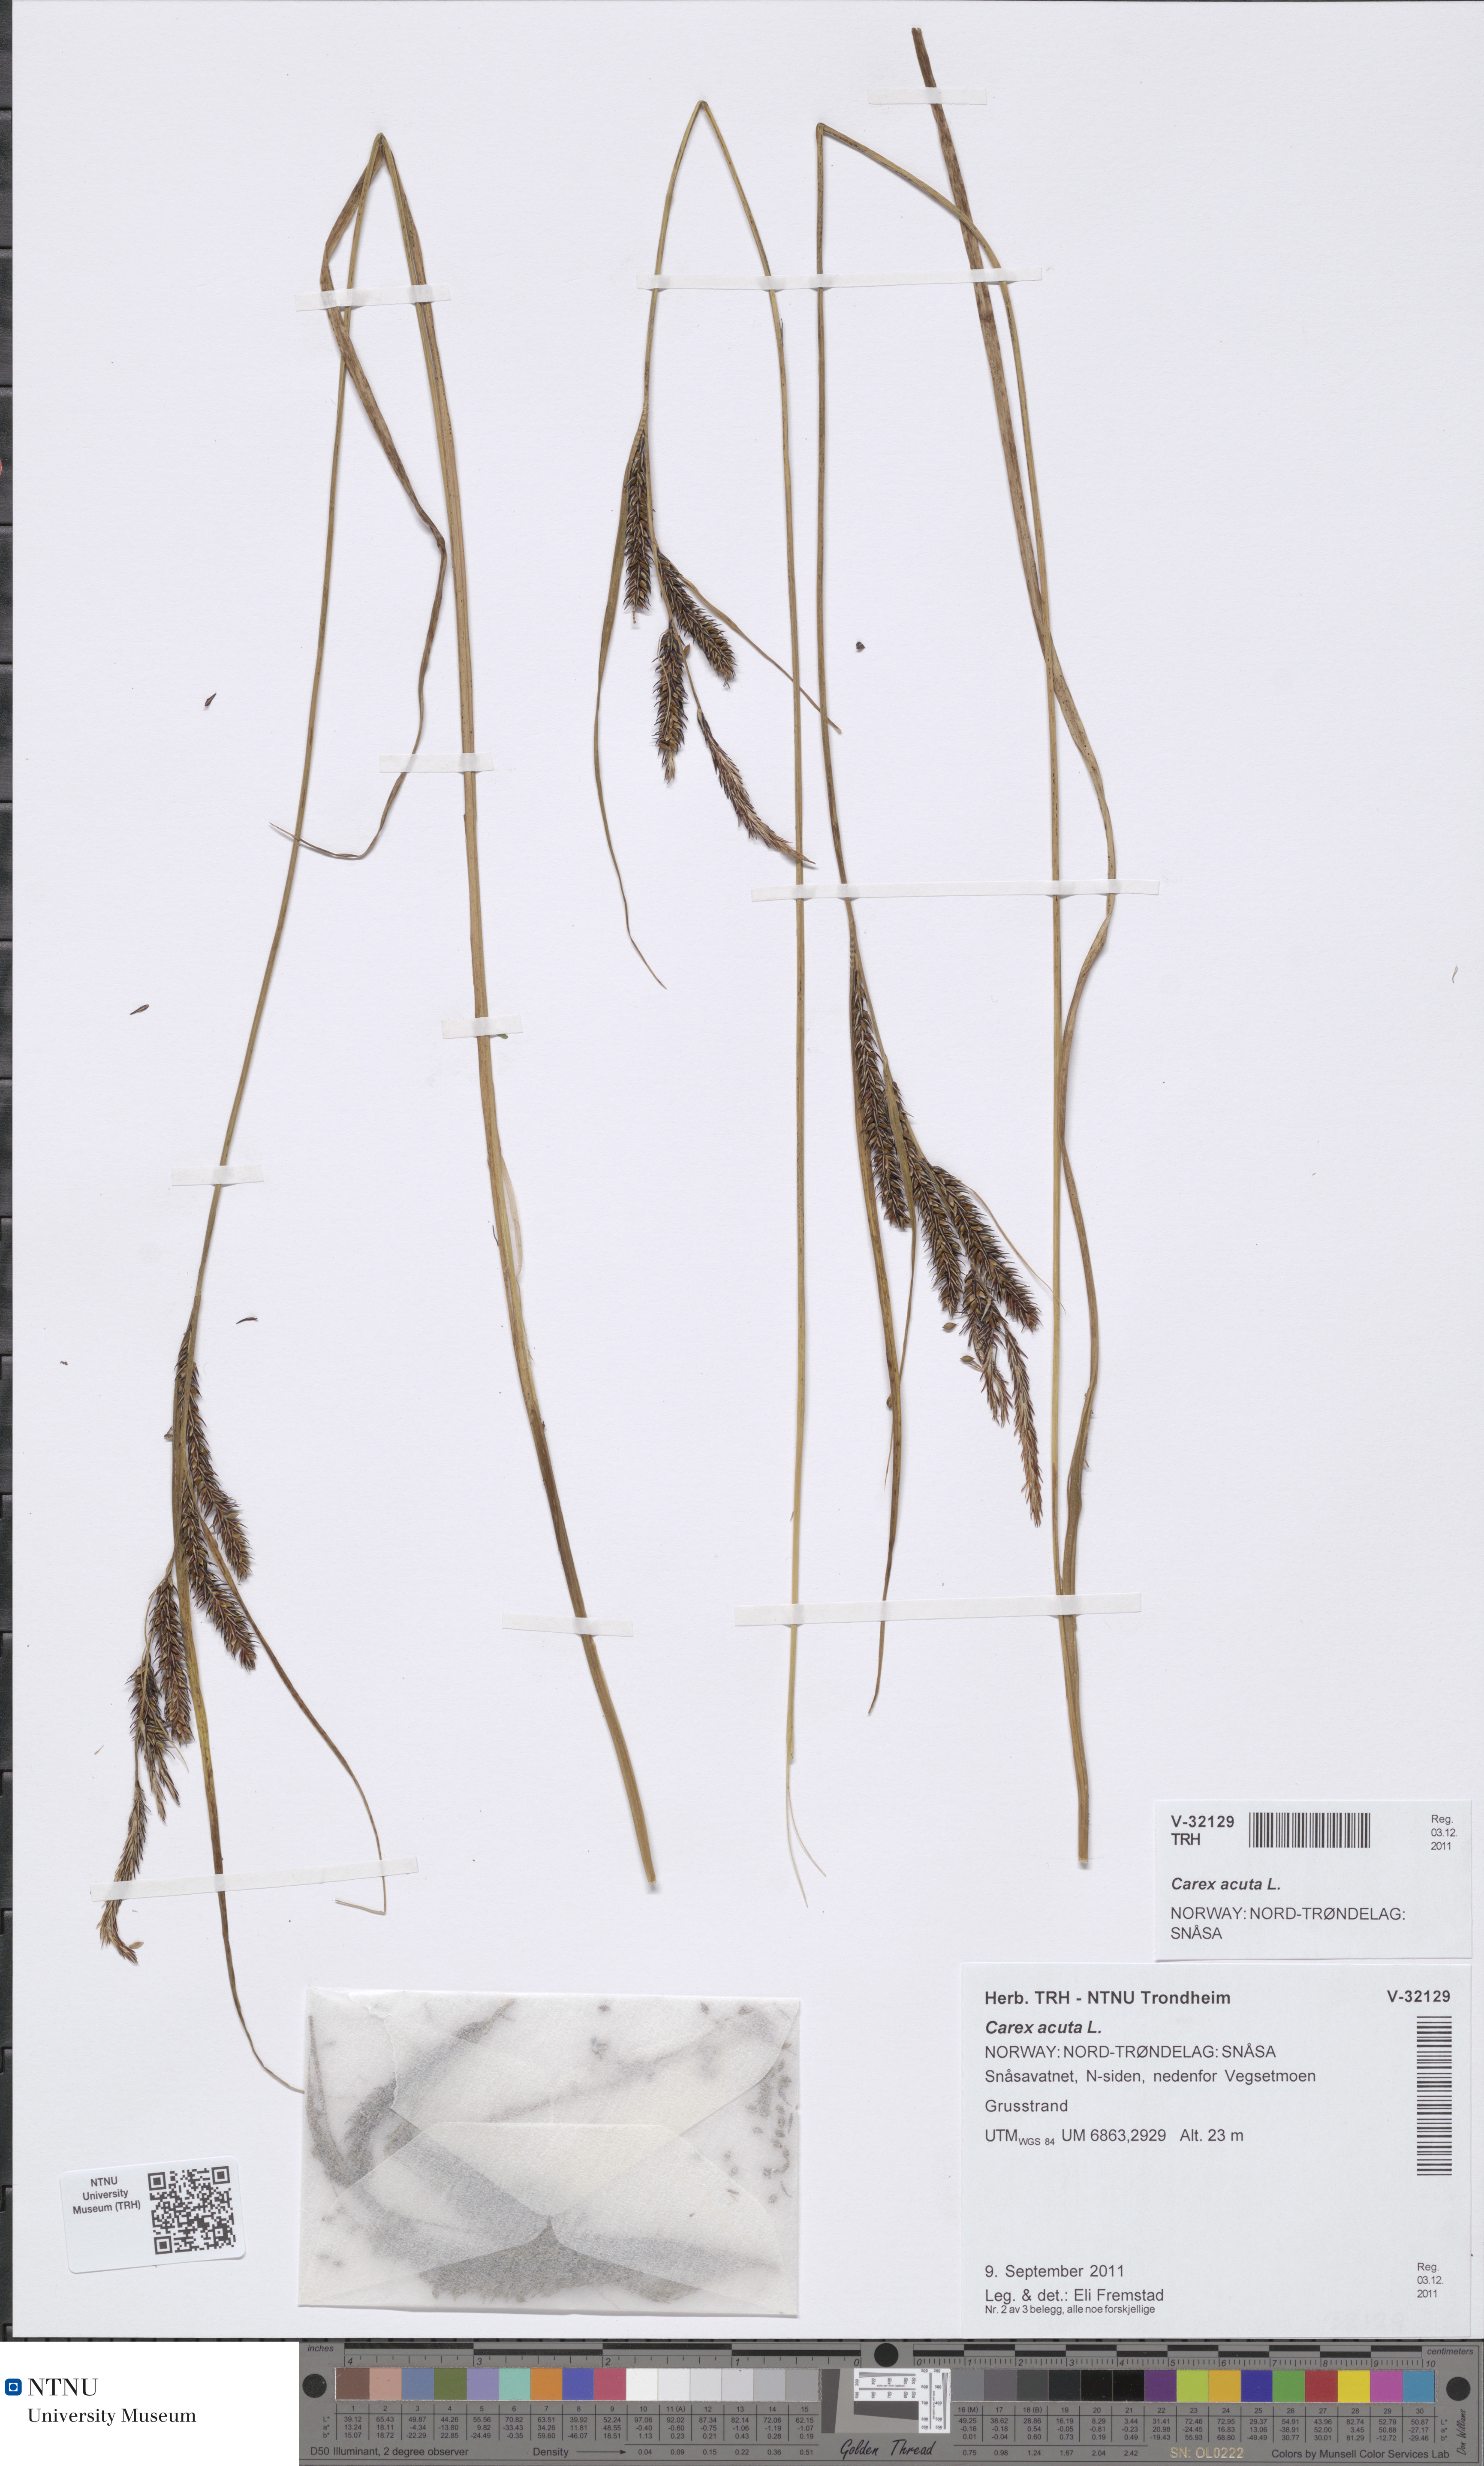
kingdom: Plantae
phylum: Tracheophyta
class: Liliopsida
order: Poales
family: Cyperaceae
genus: Carex
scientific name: Carex acuta
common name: Slender tufted-sedge
